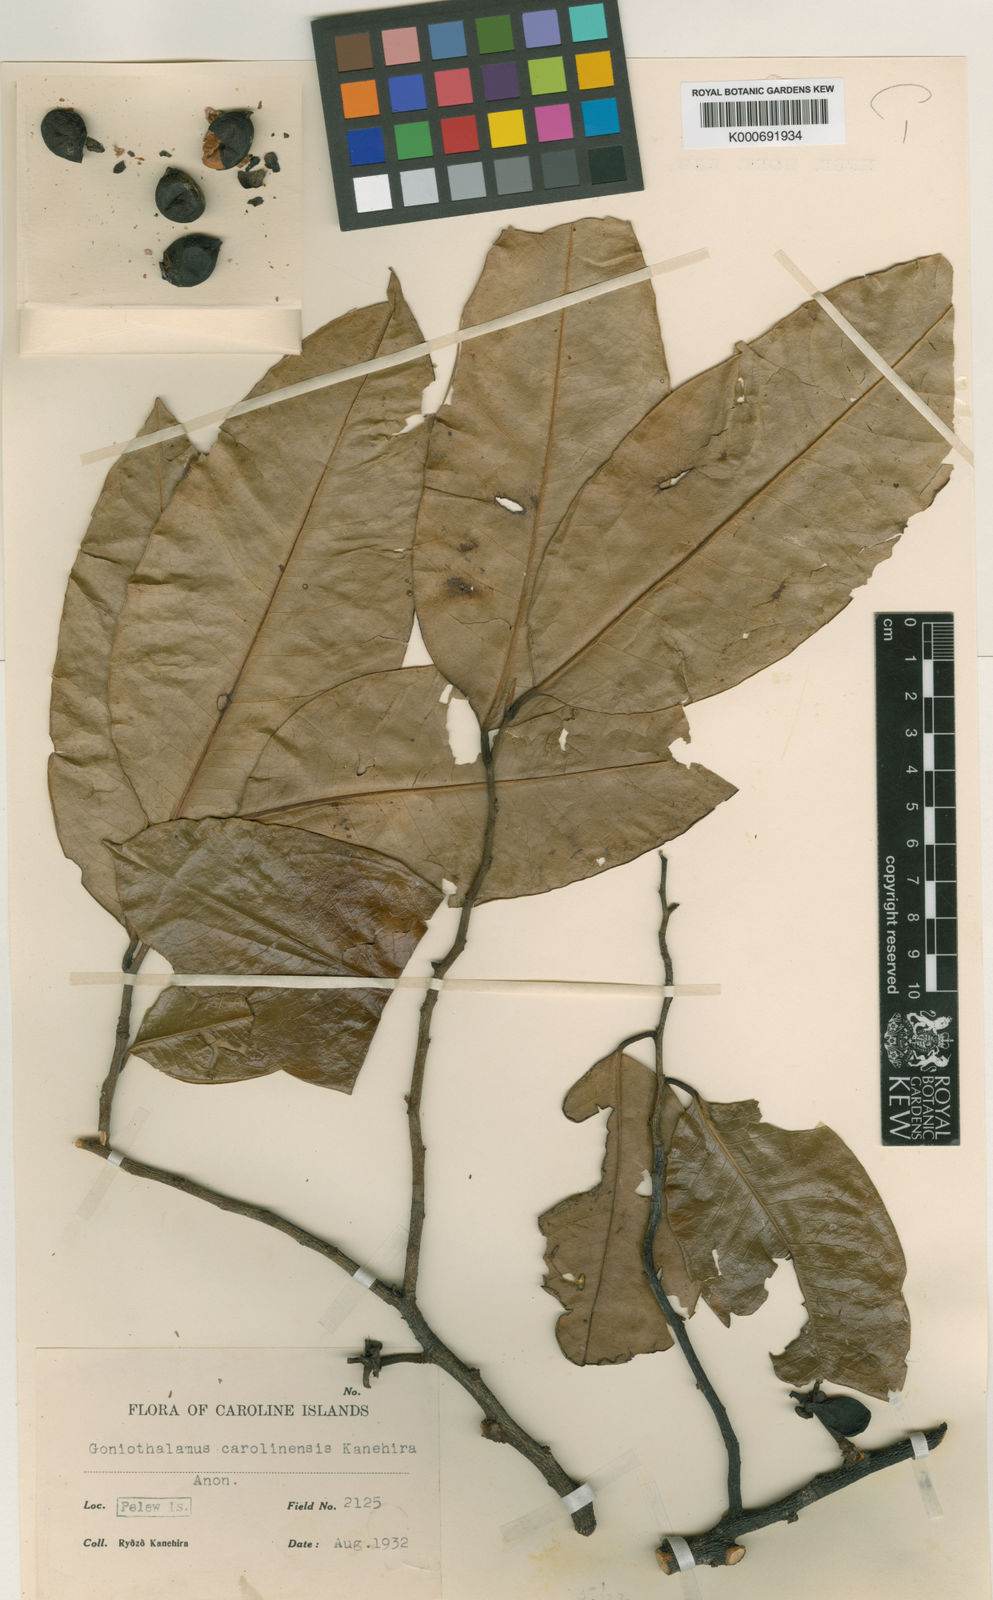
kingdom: Plantae
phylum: Tracheophyta
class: Magnoliopsida
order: Magnoliales
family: Annonaceae
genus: Goniothalamus
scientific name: Goniothalamus carolinensis
